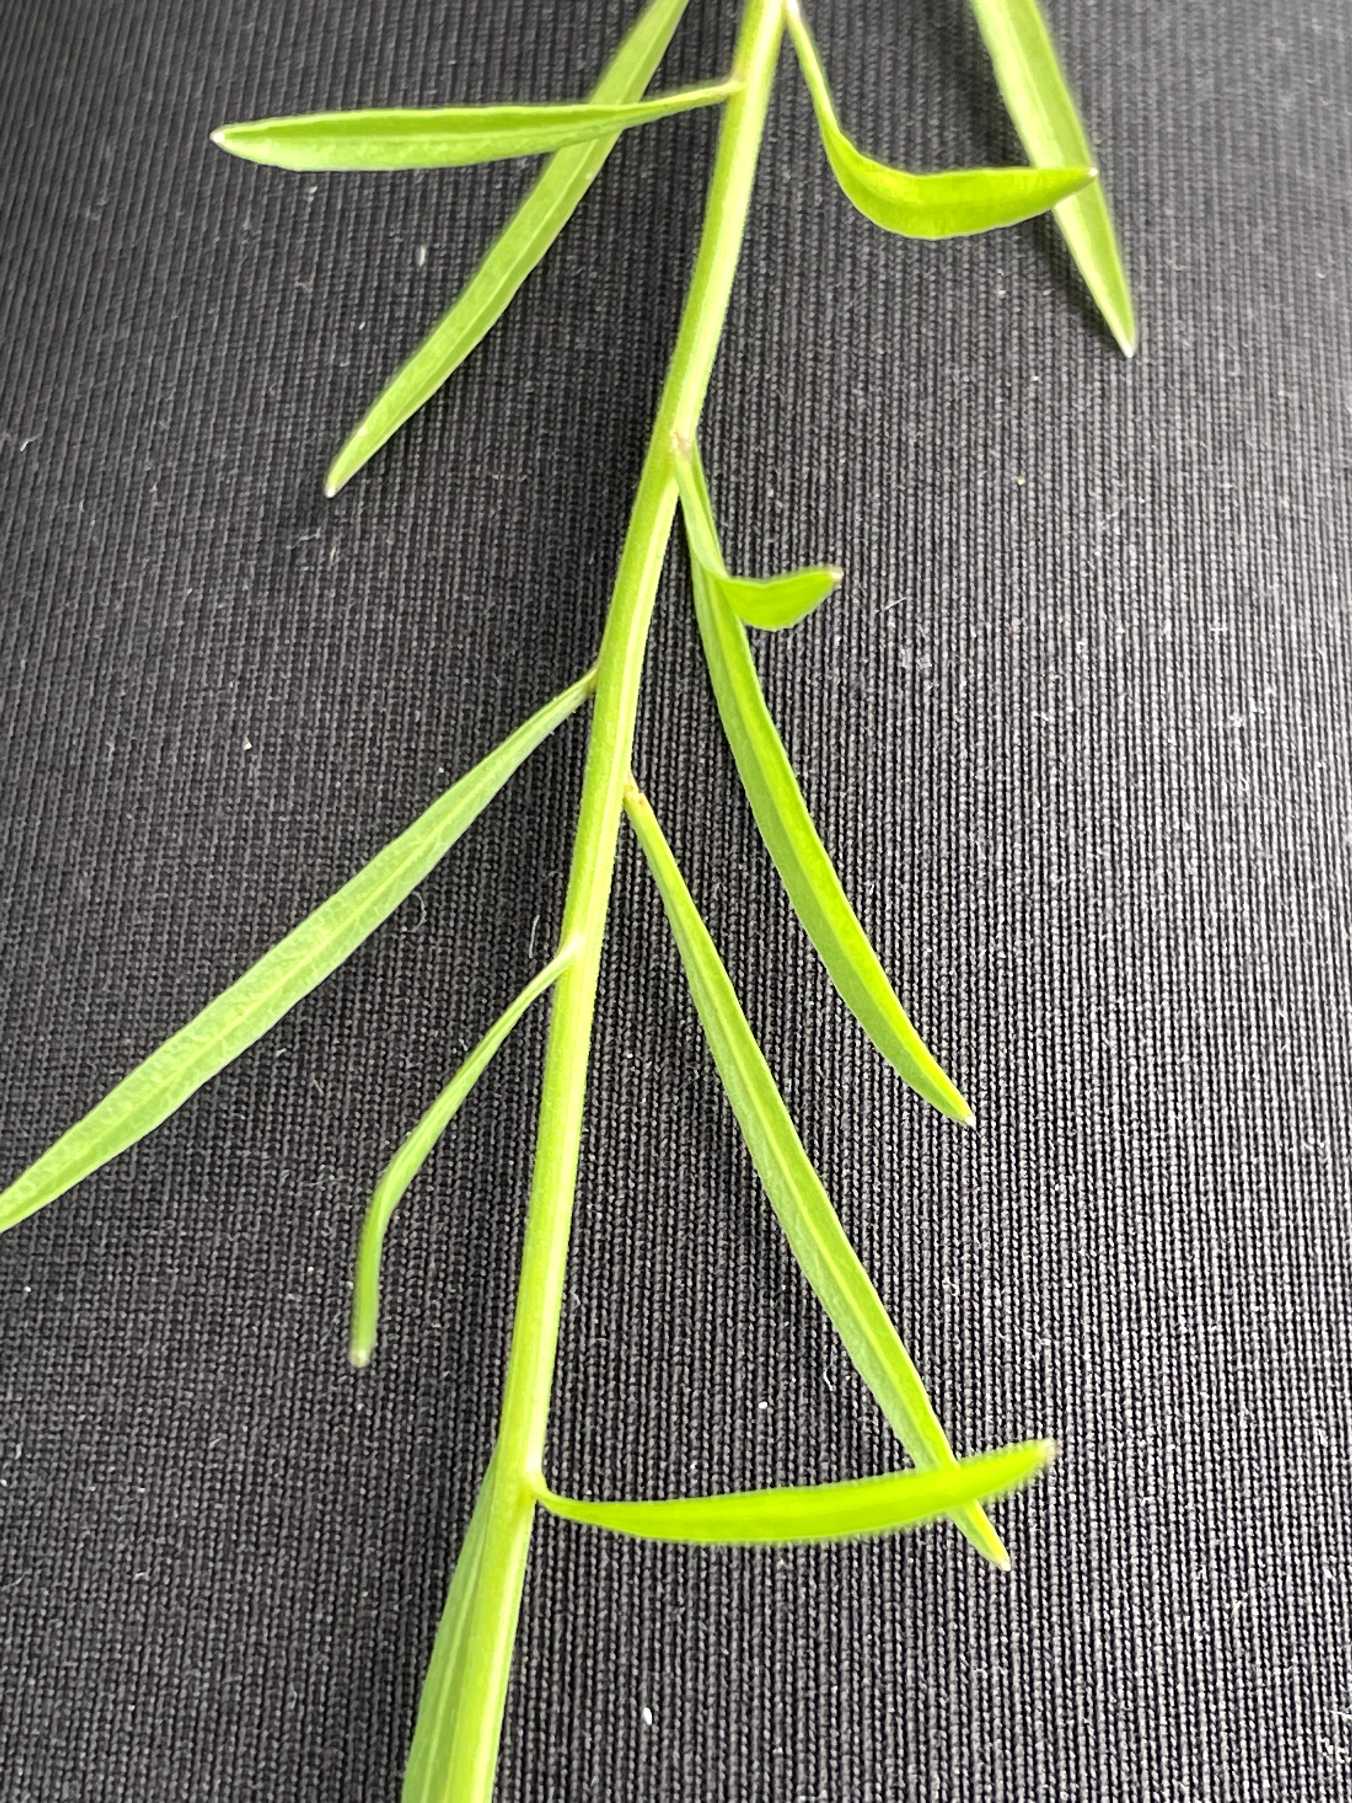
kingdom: Plantae
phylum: Tracheophyta
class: Magnoliopsida
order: Asterales
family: Campanulaceae
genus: Campanula
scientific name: Campanula rotundifolia
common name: Liden klokke
